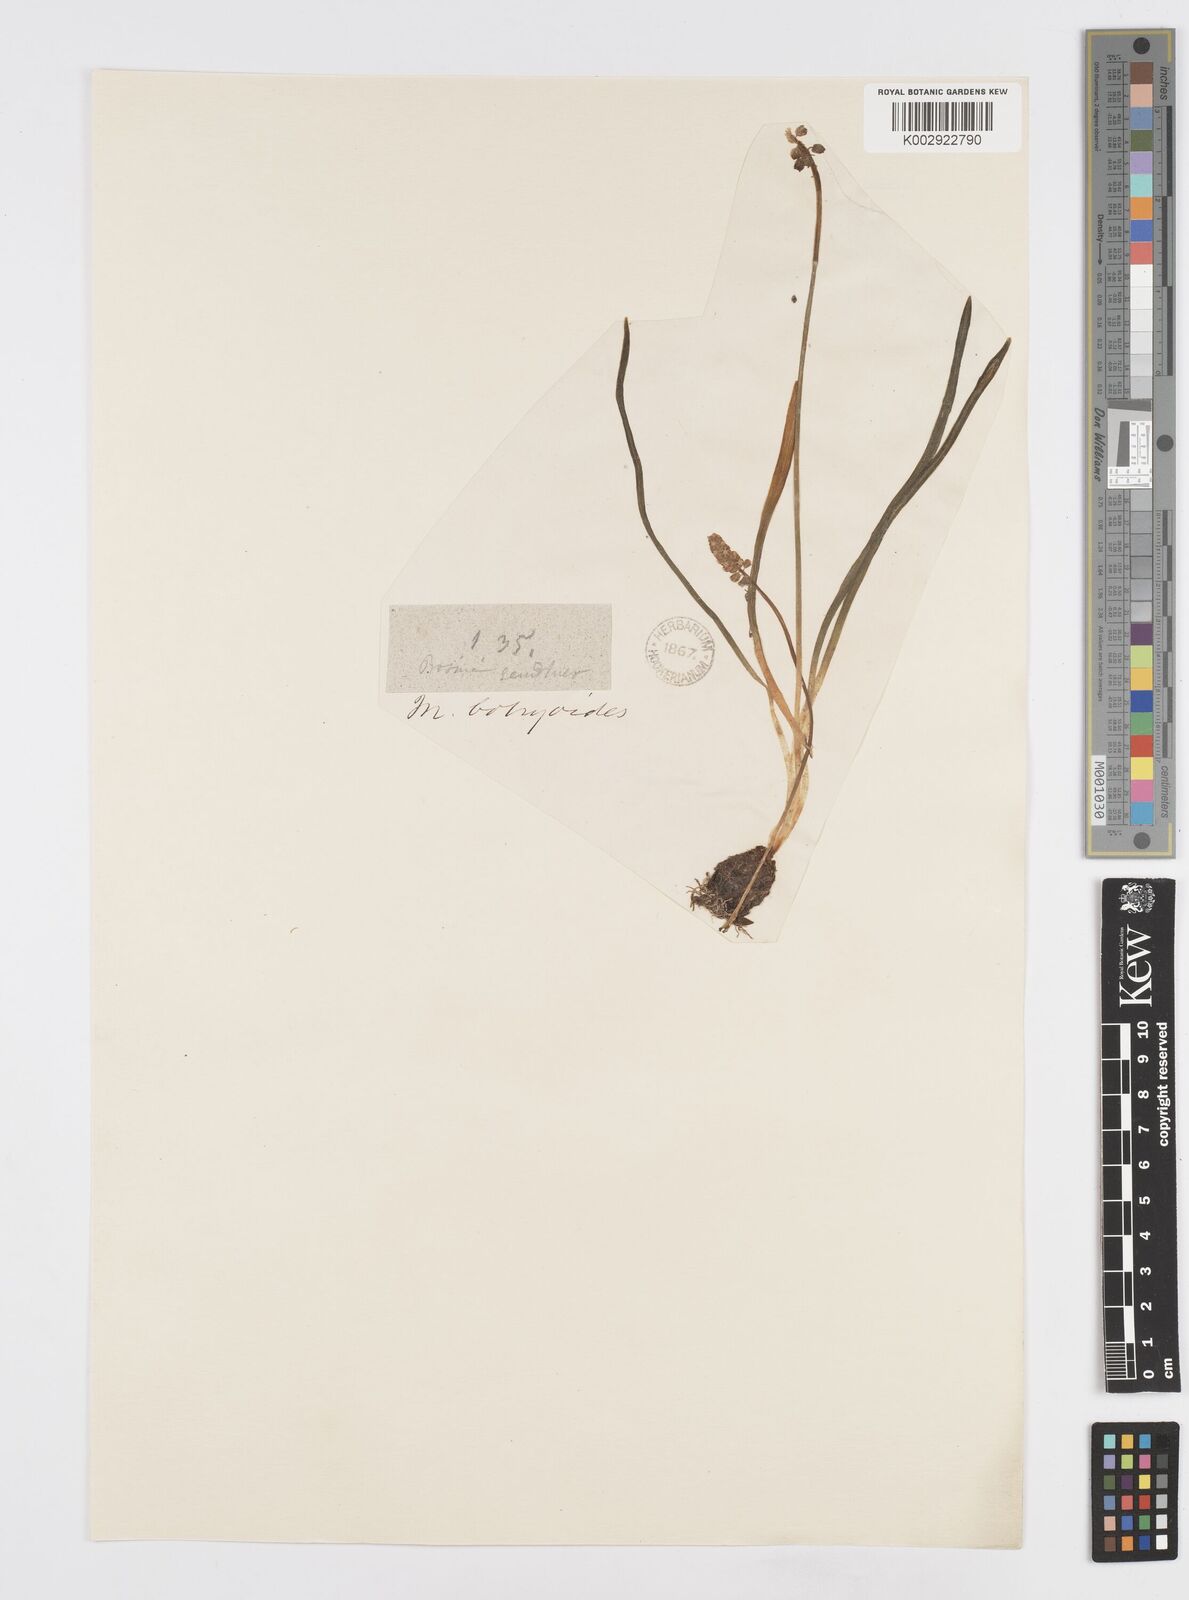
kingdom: Plantae
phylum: Tracheophyta
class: Liliopsida
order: Asparagales
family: Asparagaceae
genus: Muscari
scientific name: Muscari botryoides
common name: Compact grape-hyacinth
